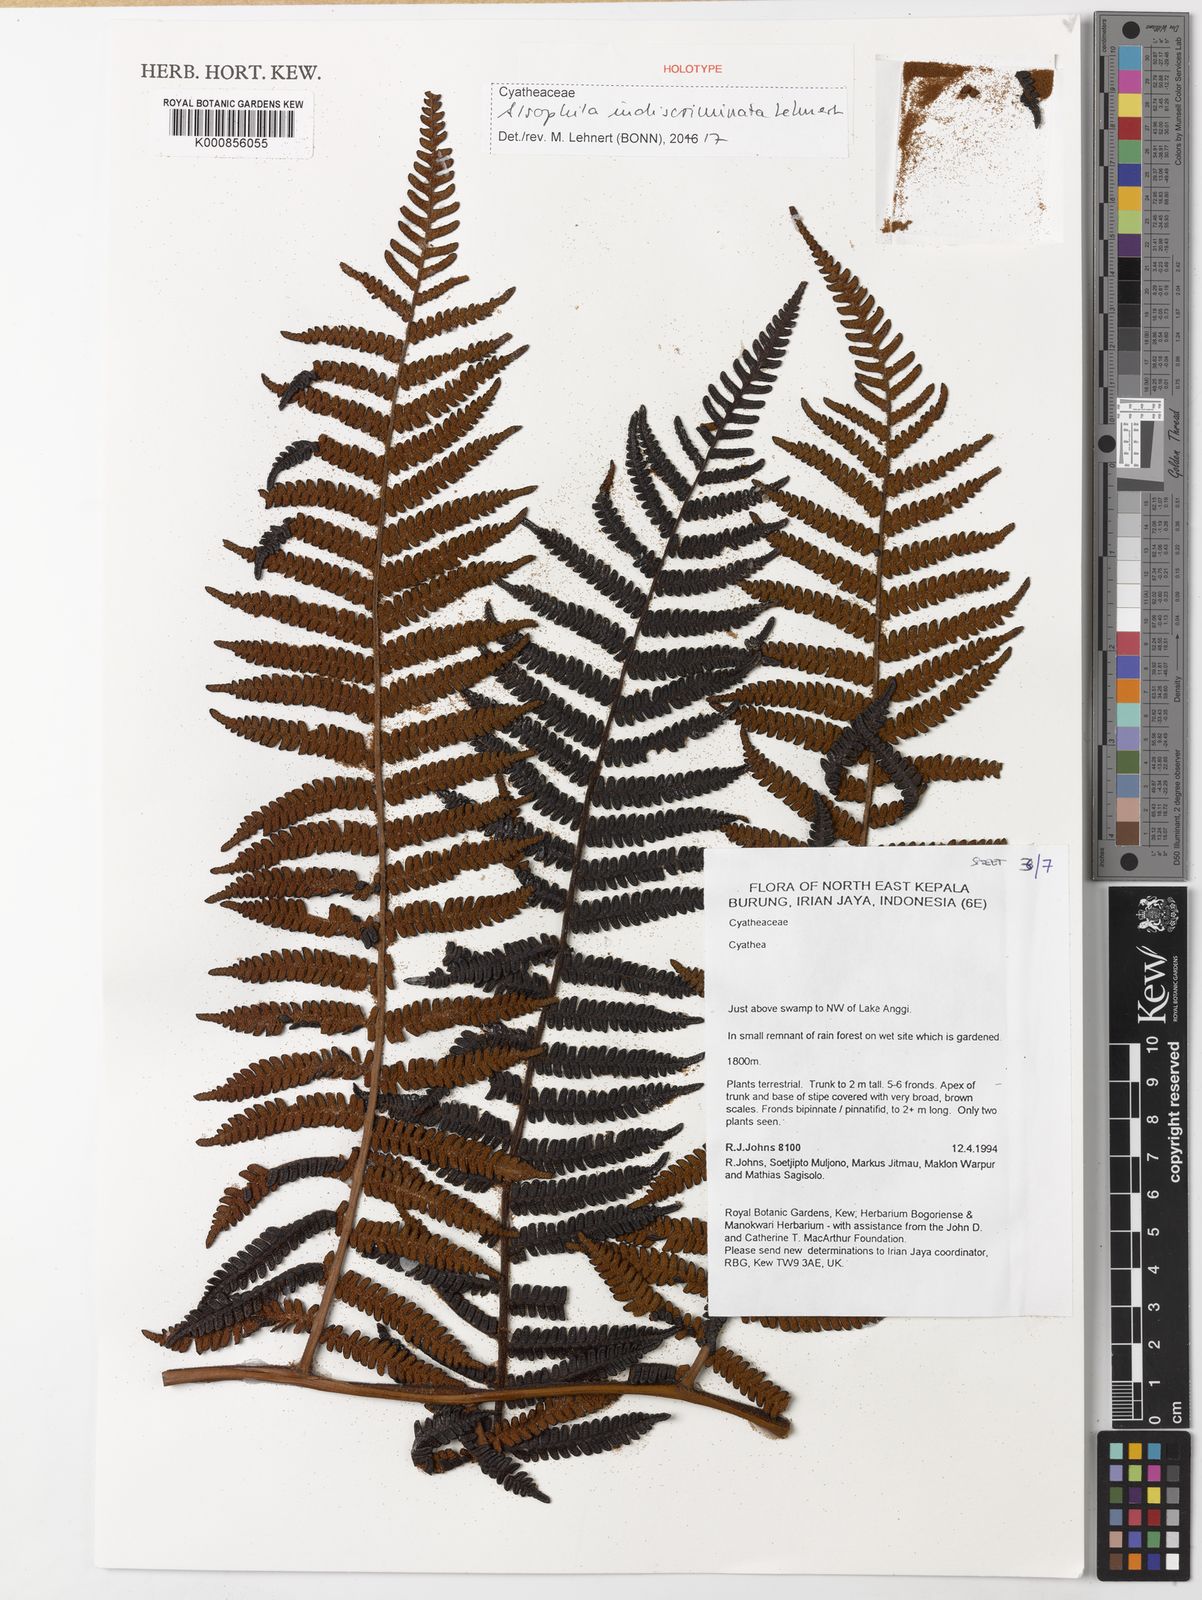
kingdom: Plantae
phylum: Tracheophyta
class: Polypodiopsida
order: Cyatheales
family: Cyatheaceae
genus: Alsophila
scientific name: Alsophila indiscriminata
